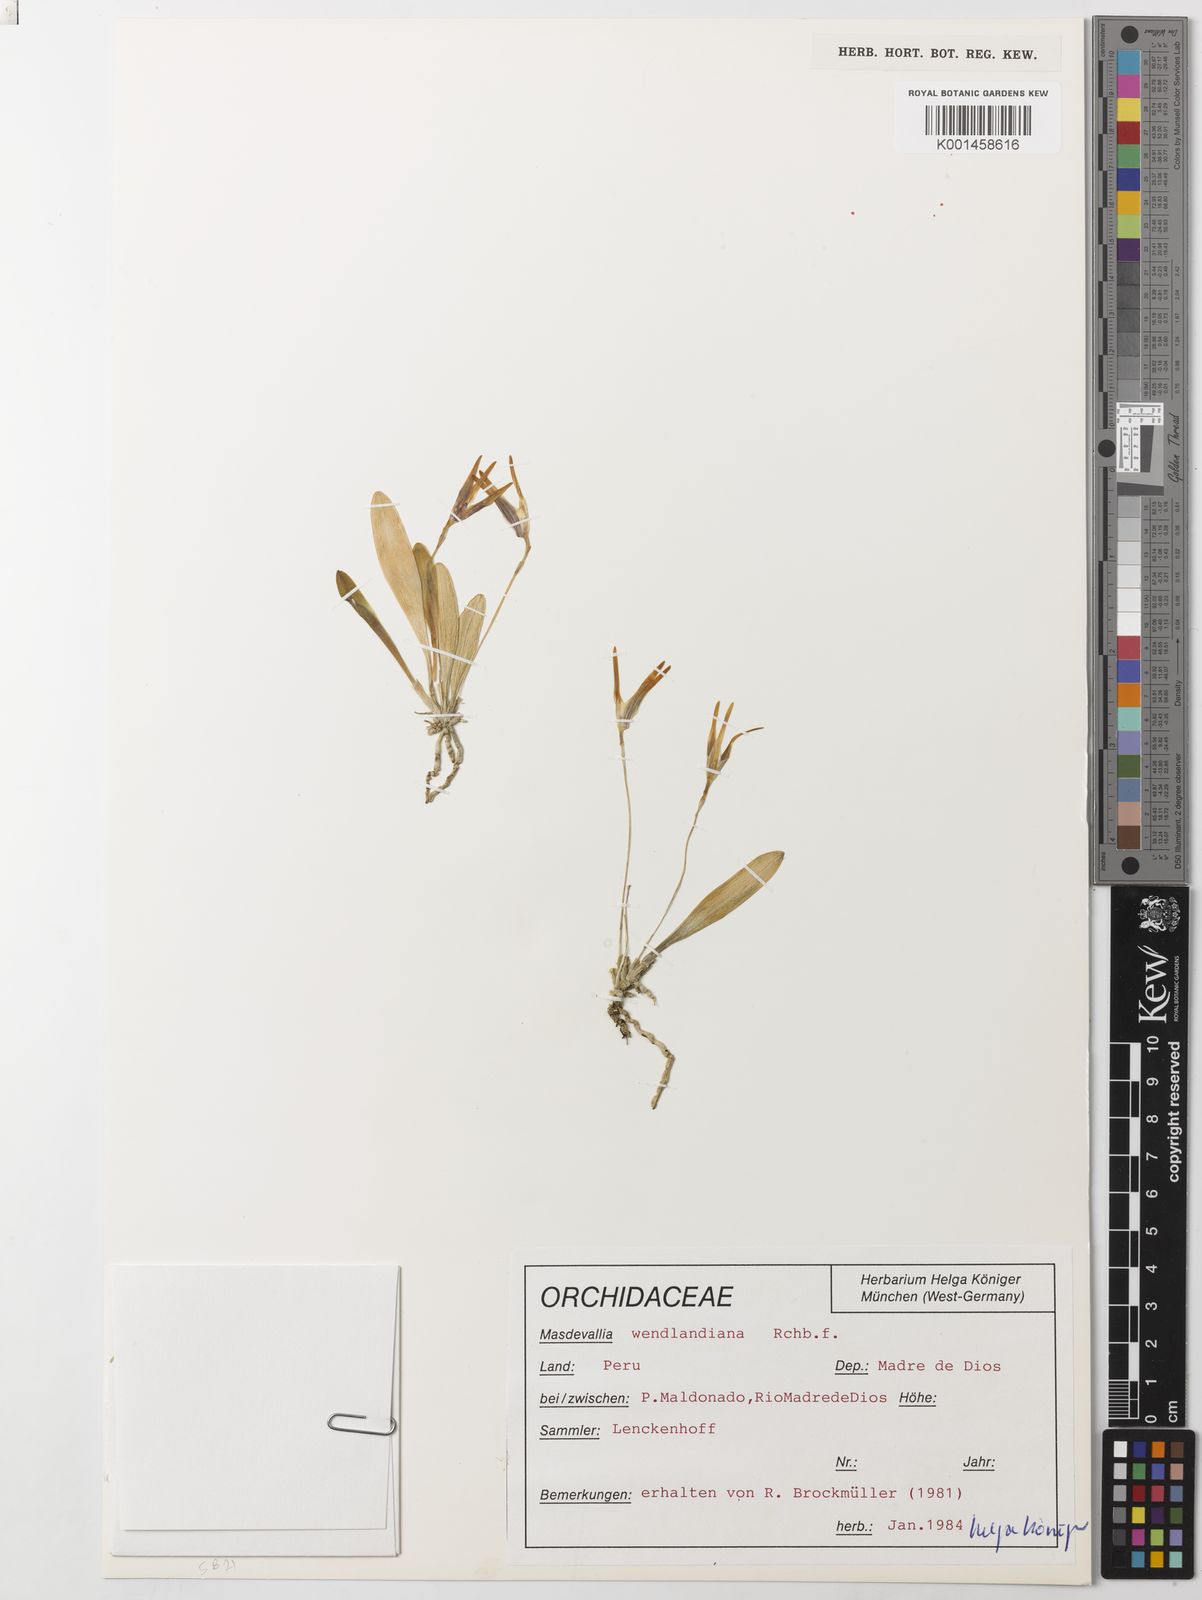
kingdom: Plantae
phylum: Tracheophyta
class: Liliopsida
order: Asparagales
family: Orchidaceae
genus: Masdevallia
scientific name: Masdevallia wendlandiana
